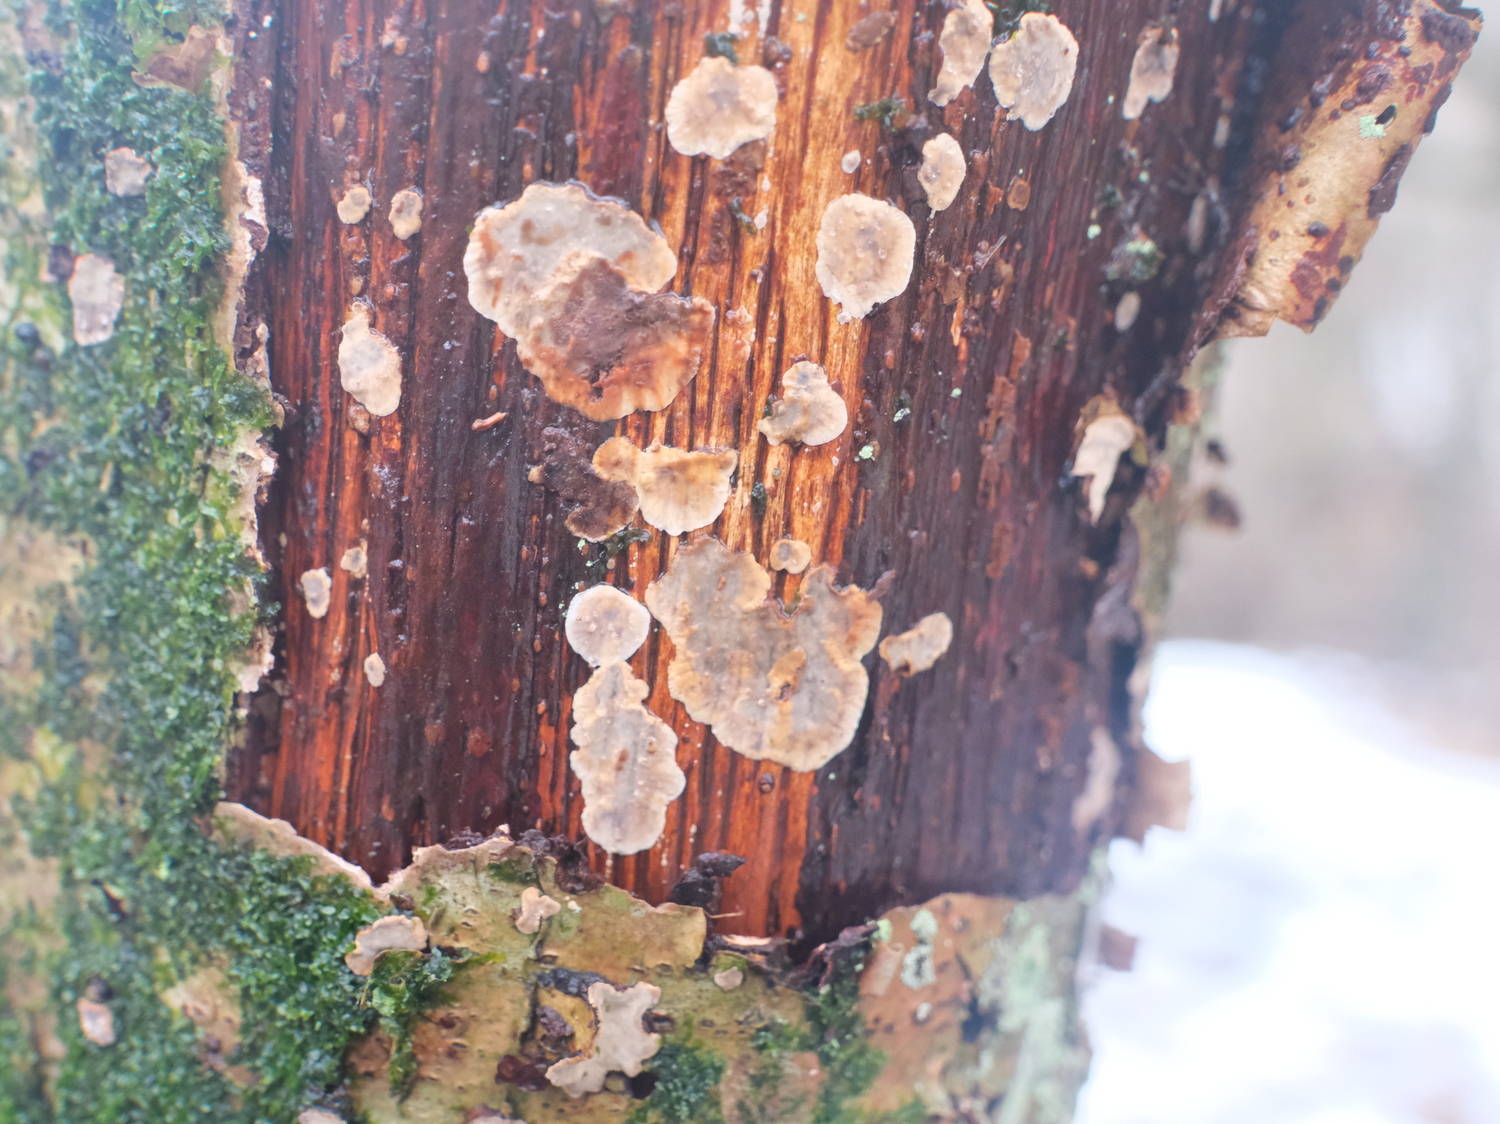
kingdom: Fungi
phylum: Basidiomycota
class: Agaricomycetes
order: Russulales
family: Stereaceae
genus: Stereum
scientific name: Stereum rugosum
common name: rynket lædersvamp
